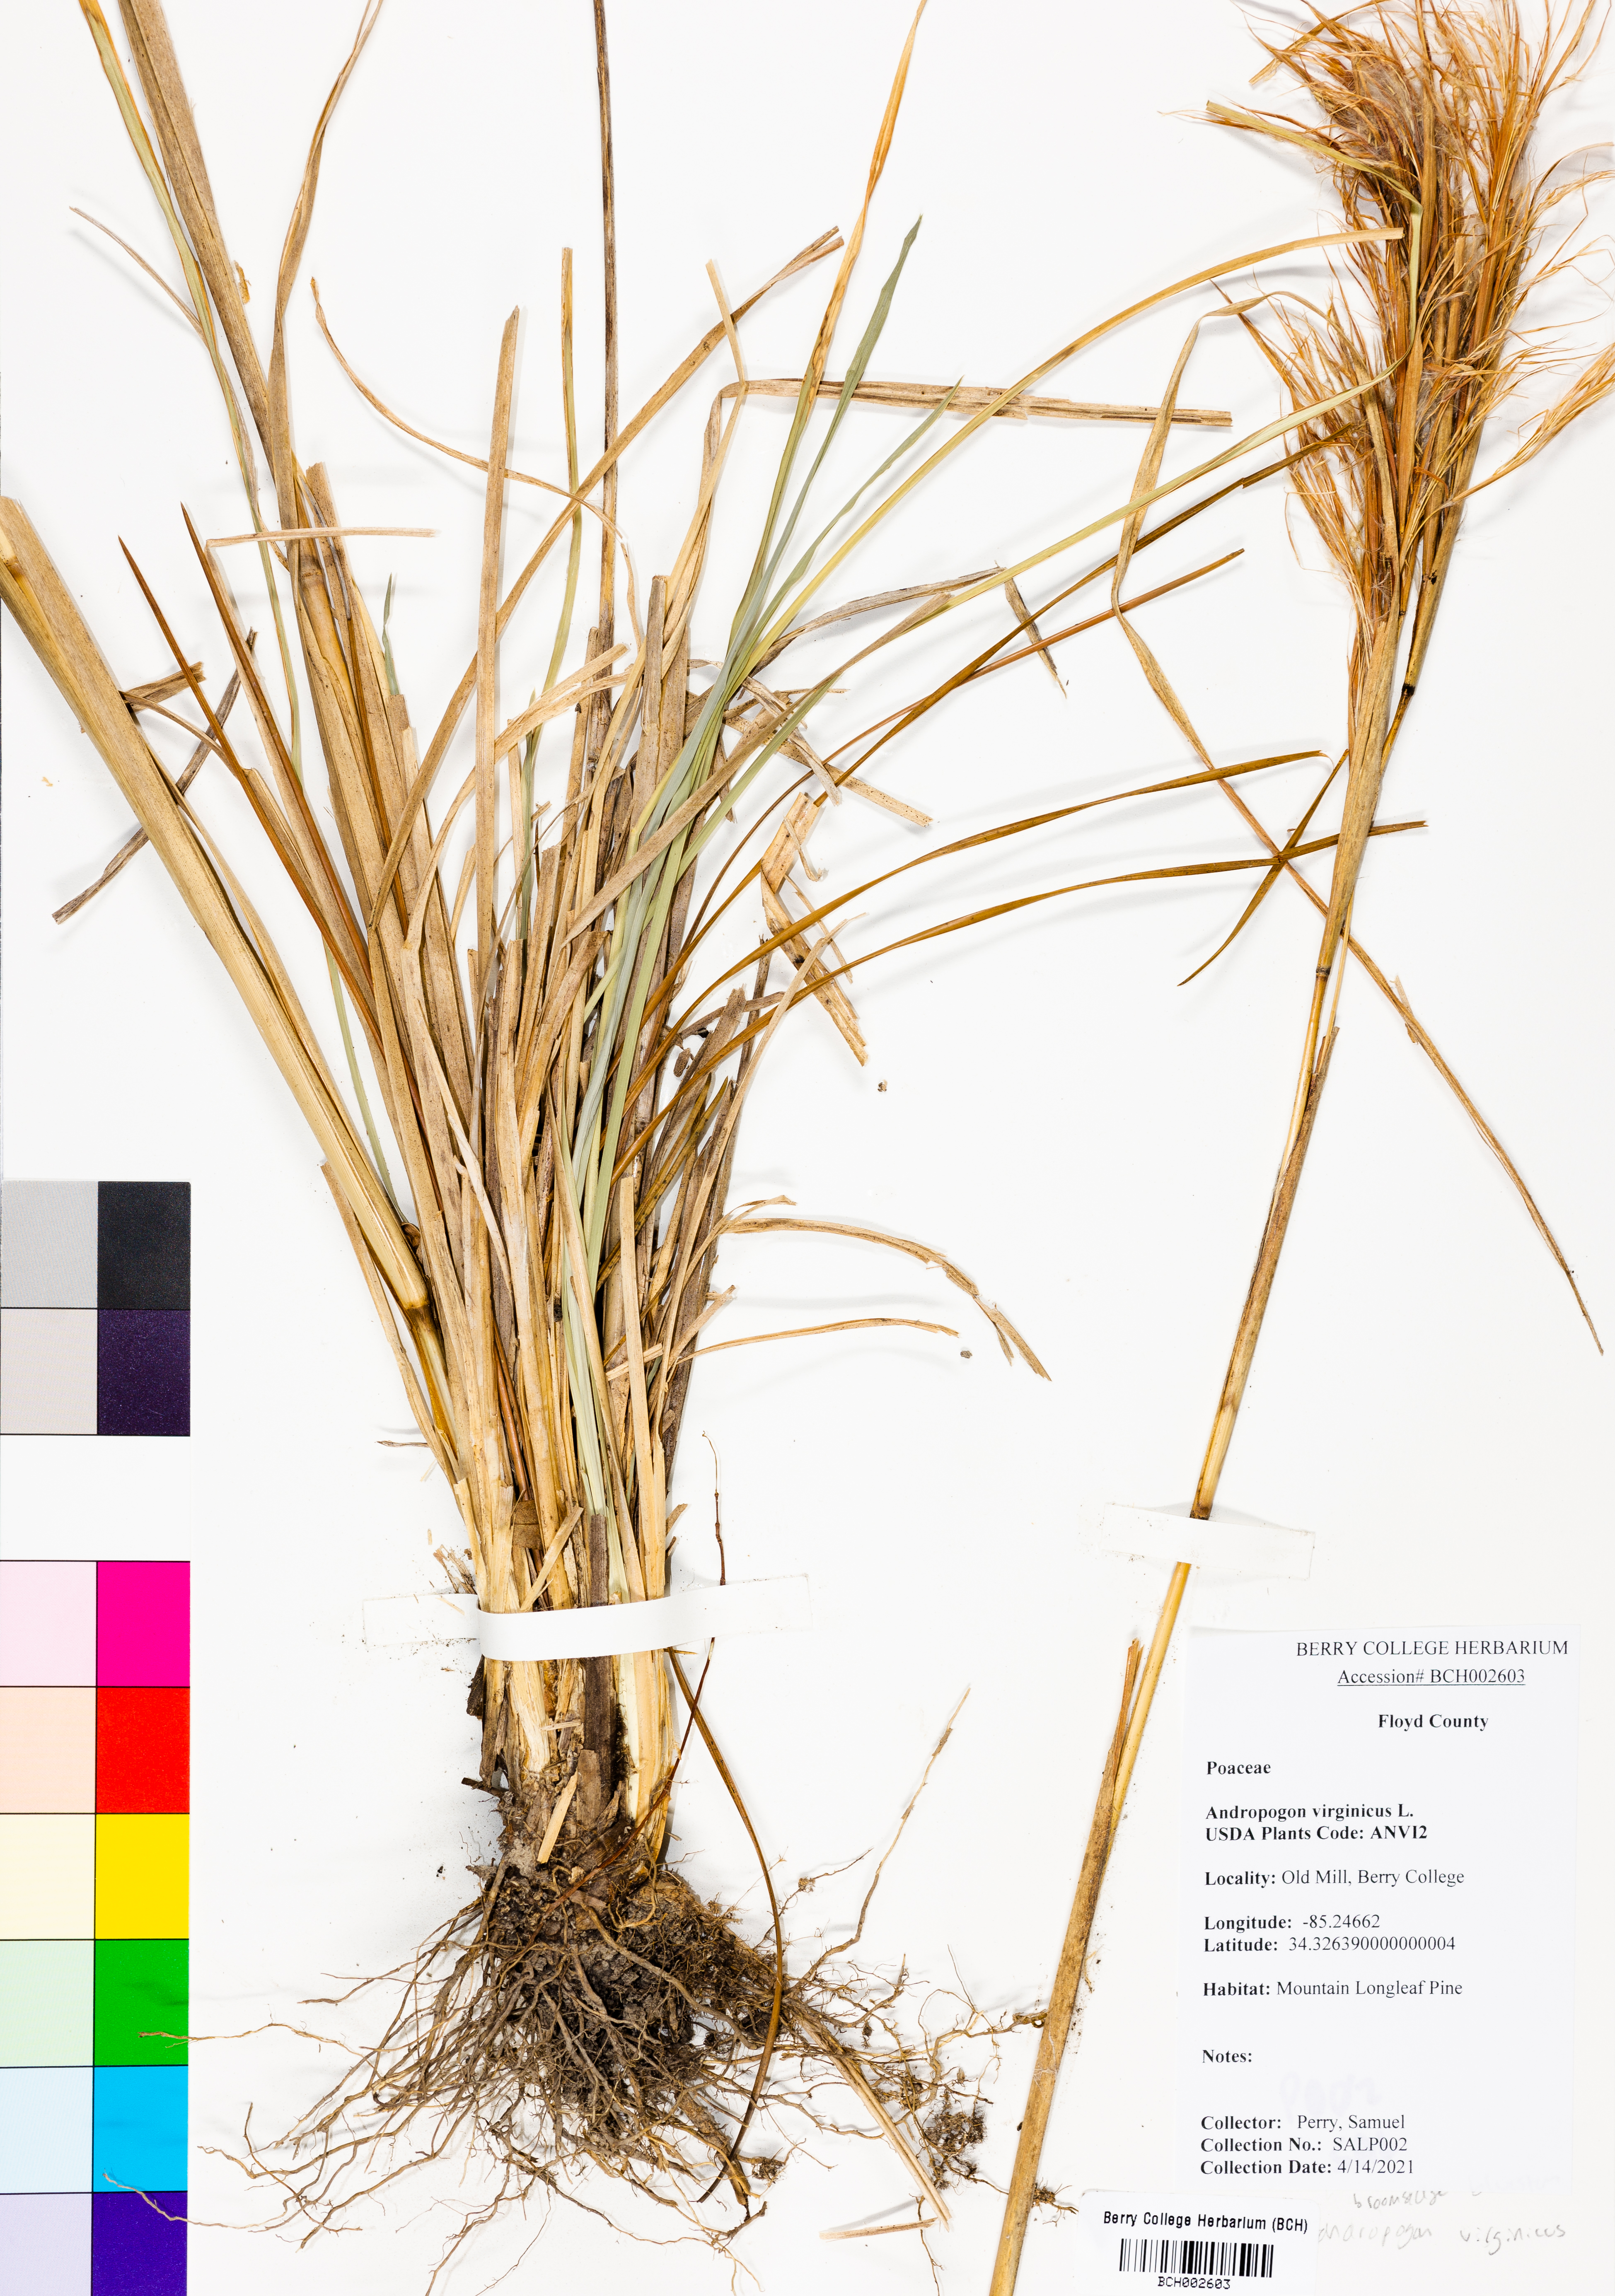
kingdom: Plantae
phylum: Tracheophyta
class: Liliopsida
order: Poales
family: Poaceae
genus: Andropogon
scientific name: Andropogon virginicus
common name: Broomsedge bluestem
